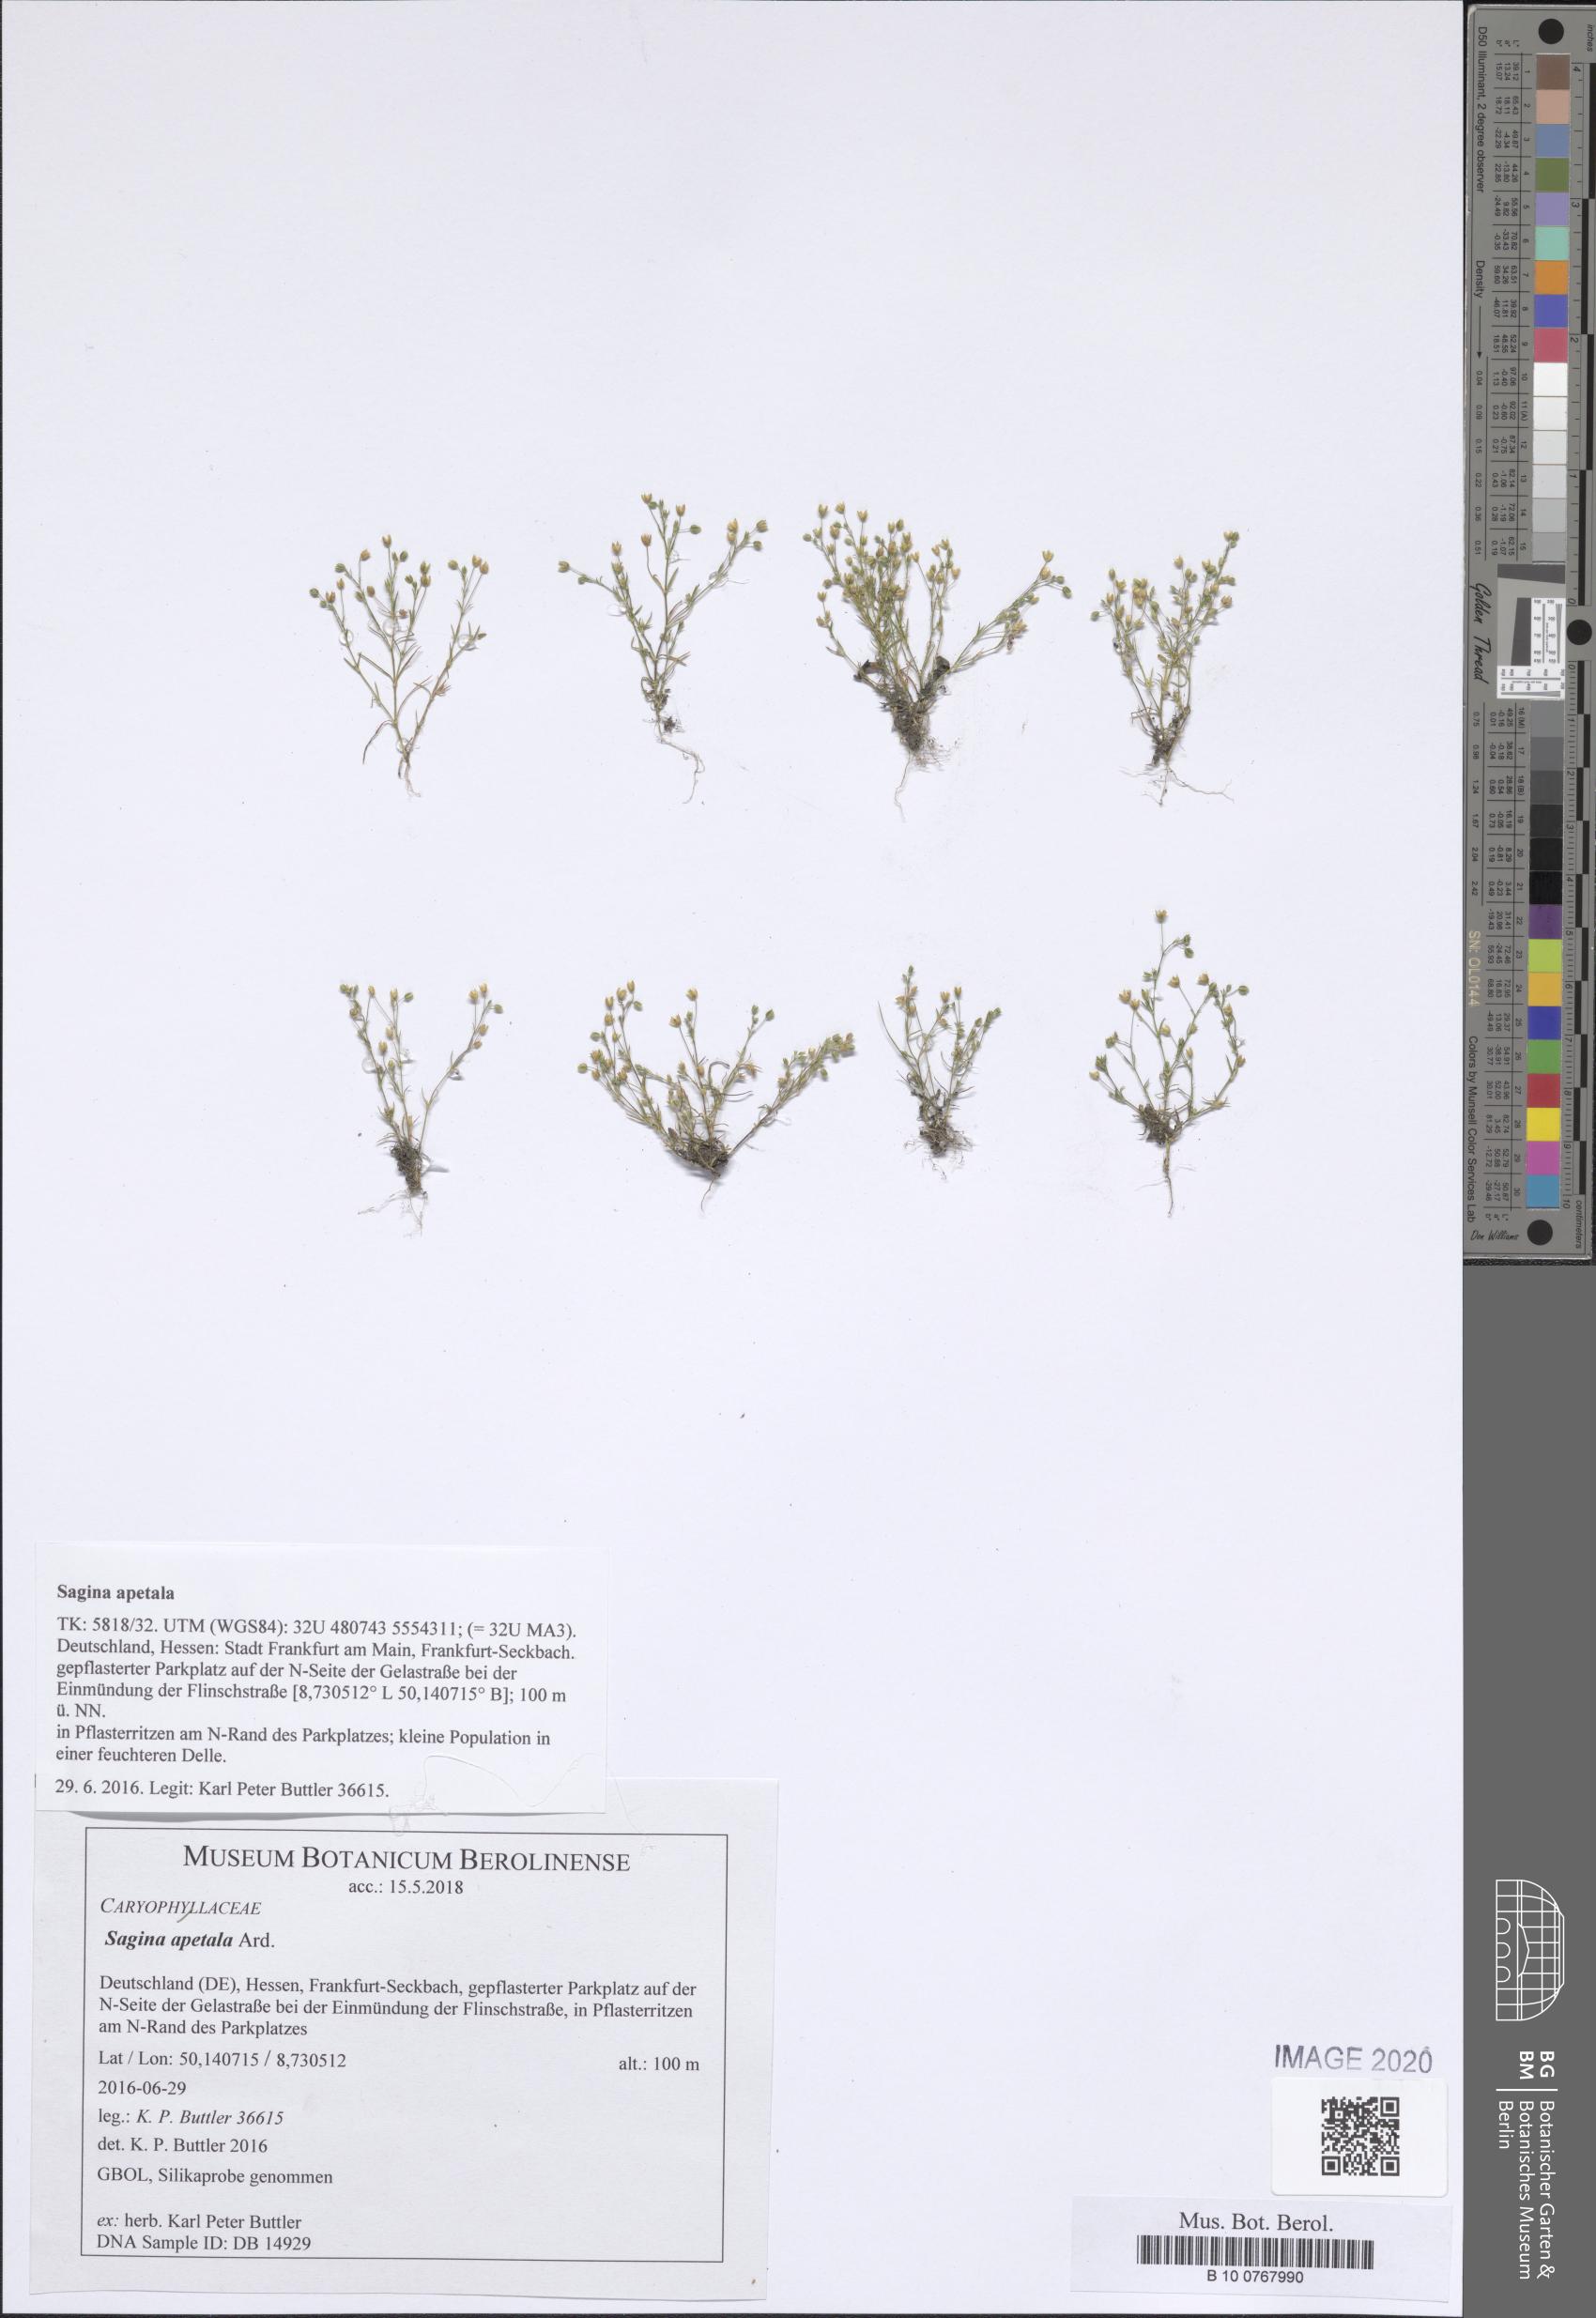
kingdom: Plantae
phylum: Tracheophyta
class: Magnoliopsida
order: Caryophyllales
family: Caryophyllaceae
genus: Sagina
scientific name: Sagina apetala
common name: Annual pearlwort
